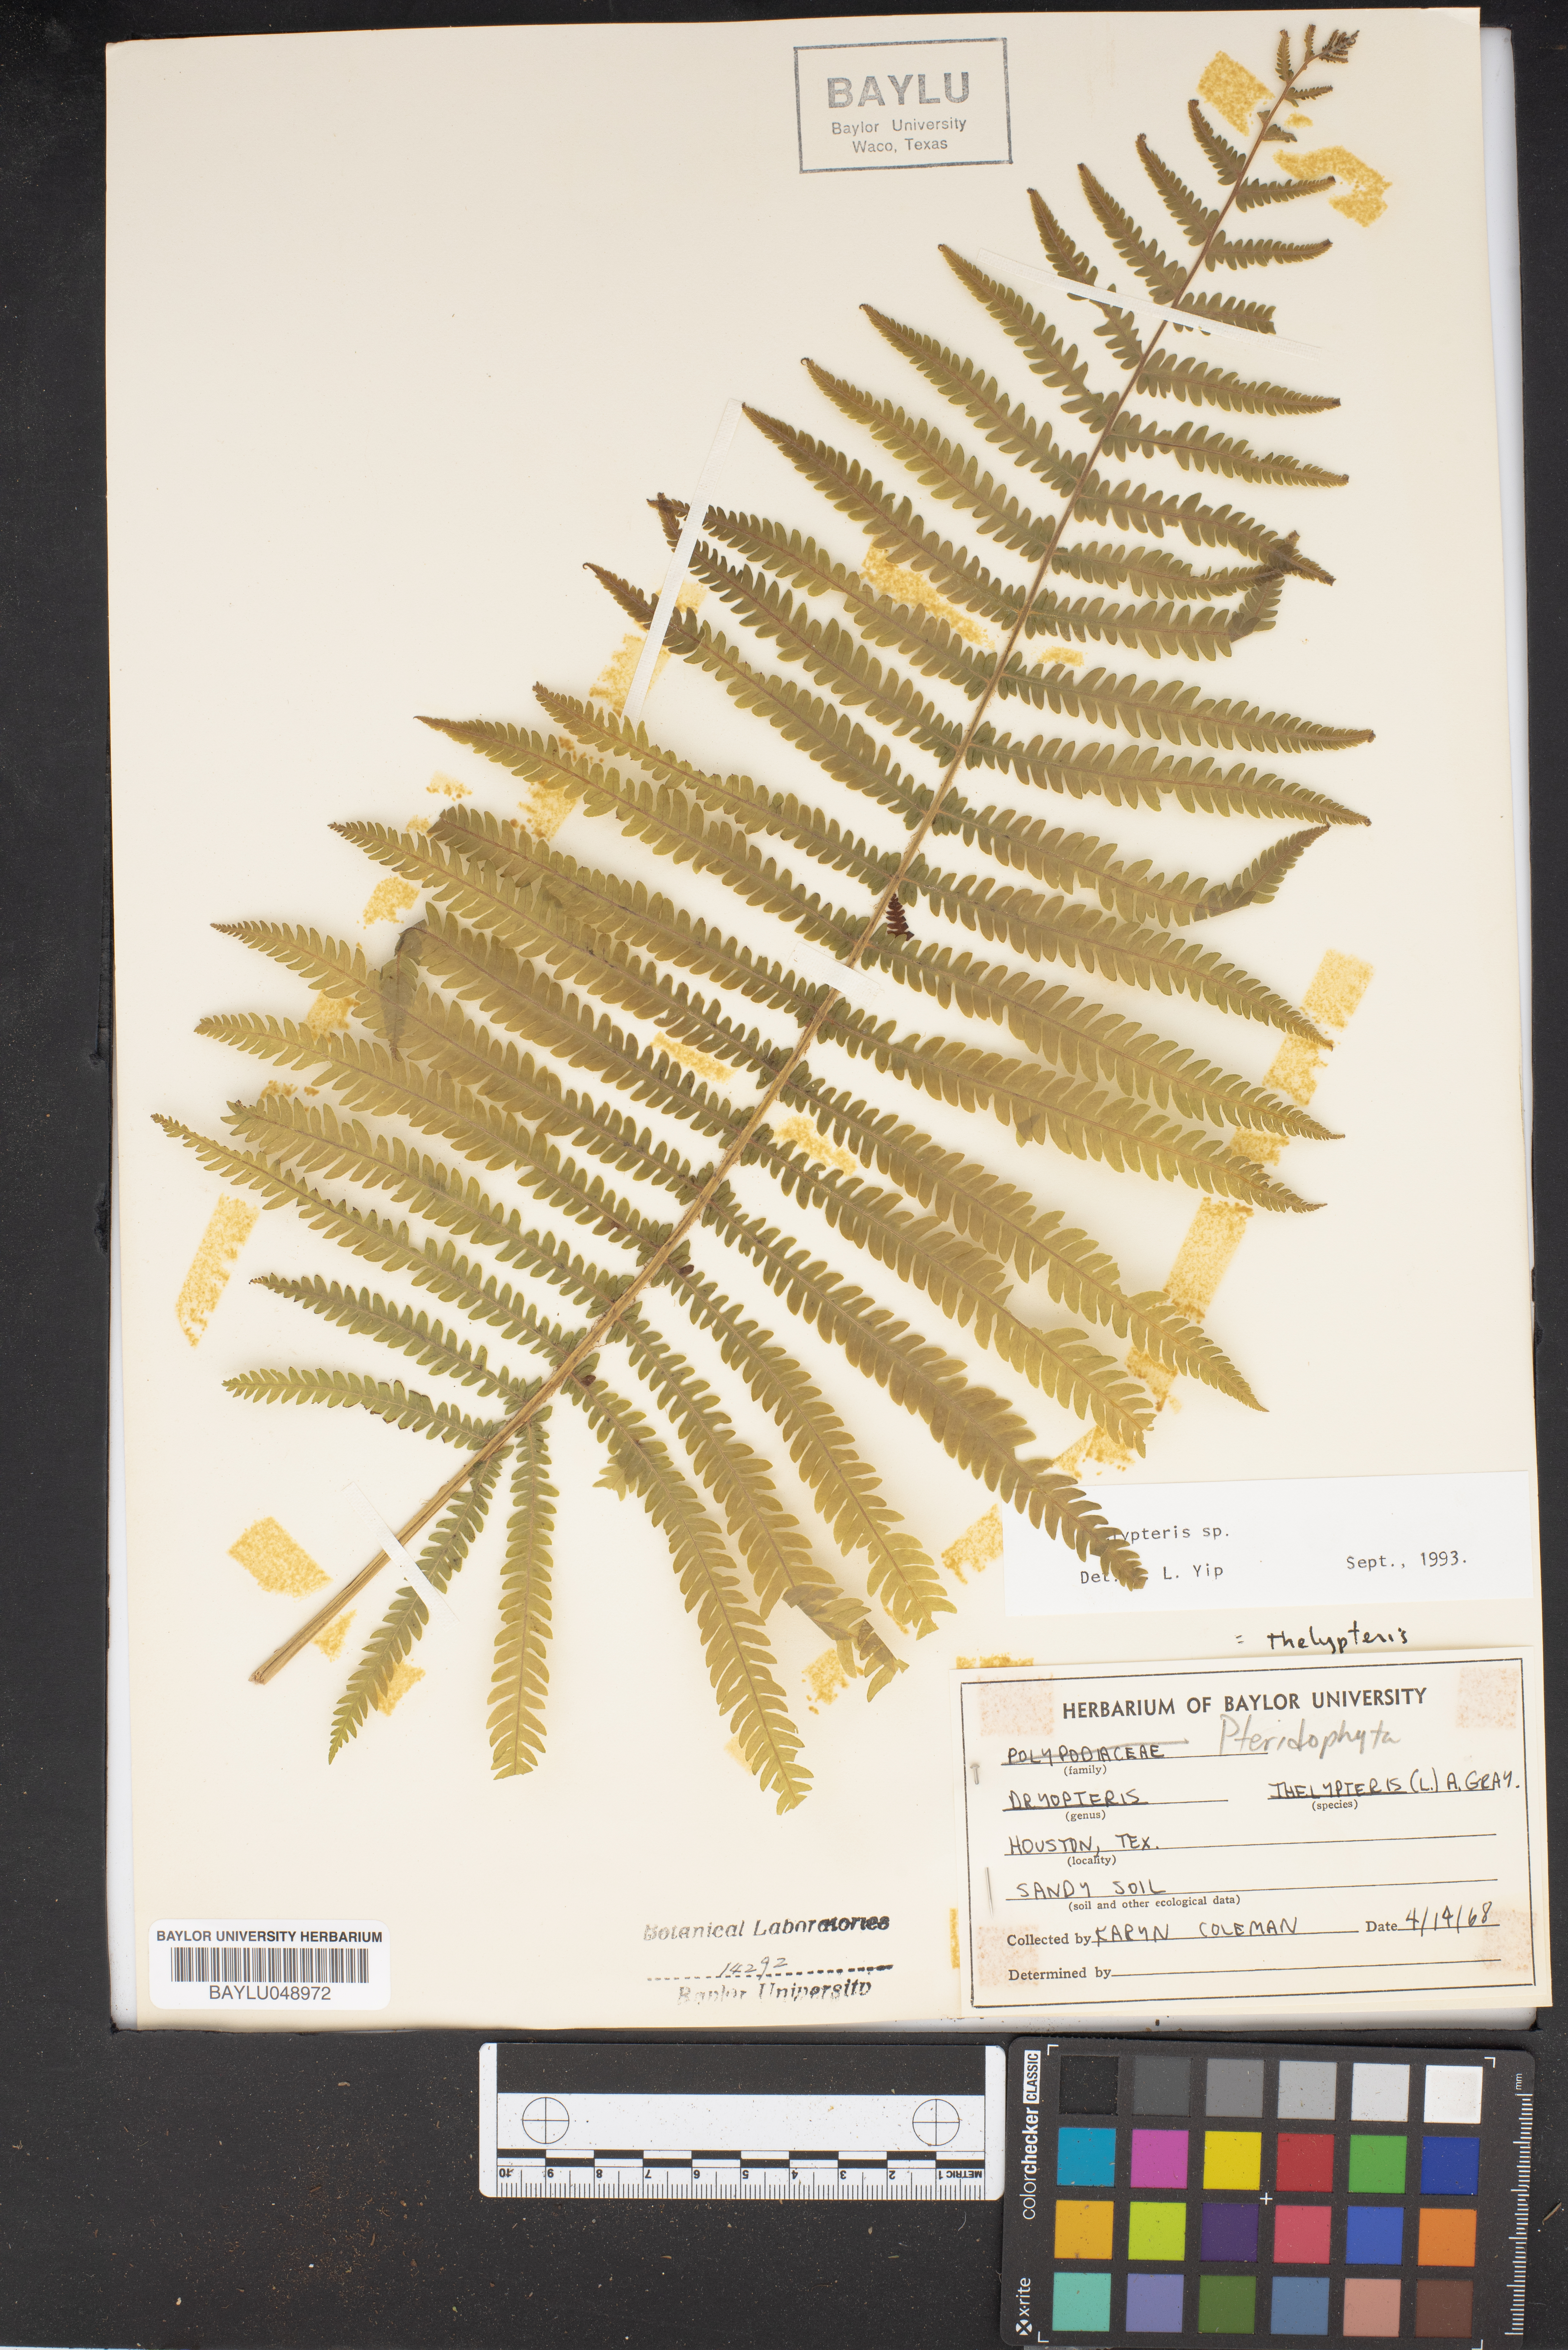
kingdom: Plantae
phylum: Tracheophyta
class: Polypodiopsida
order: Polypodiales
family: Thelypteridaceae
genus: Thelypteris
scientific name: Thelypteris palustris
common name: Marsh fern
